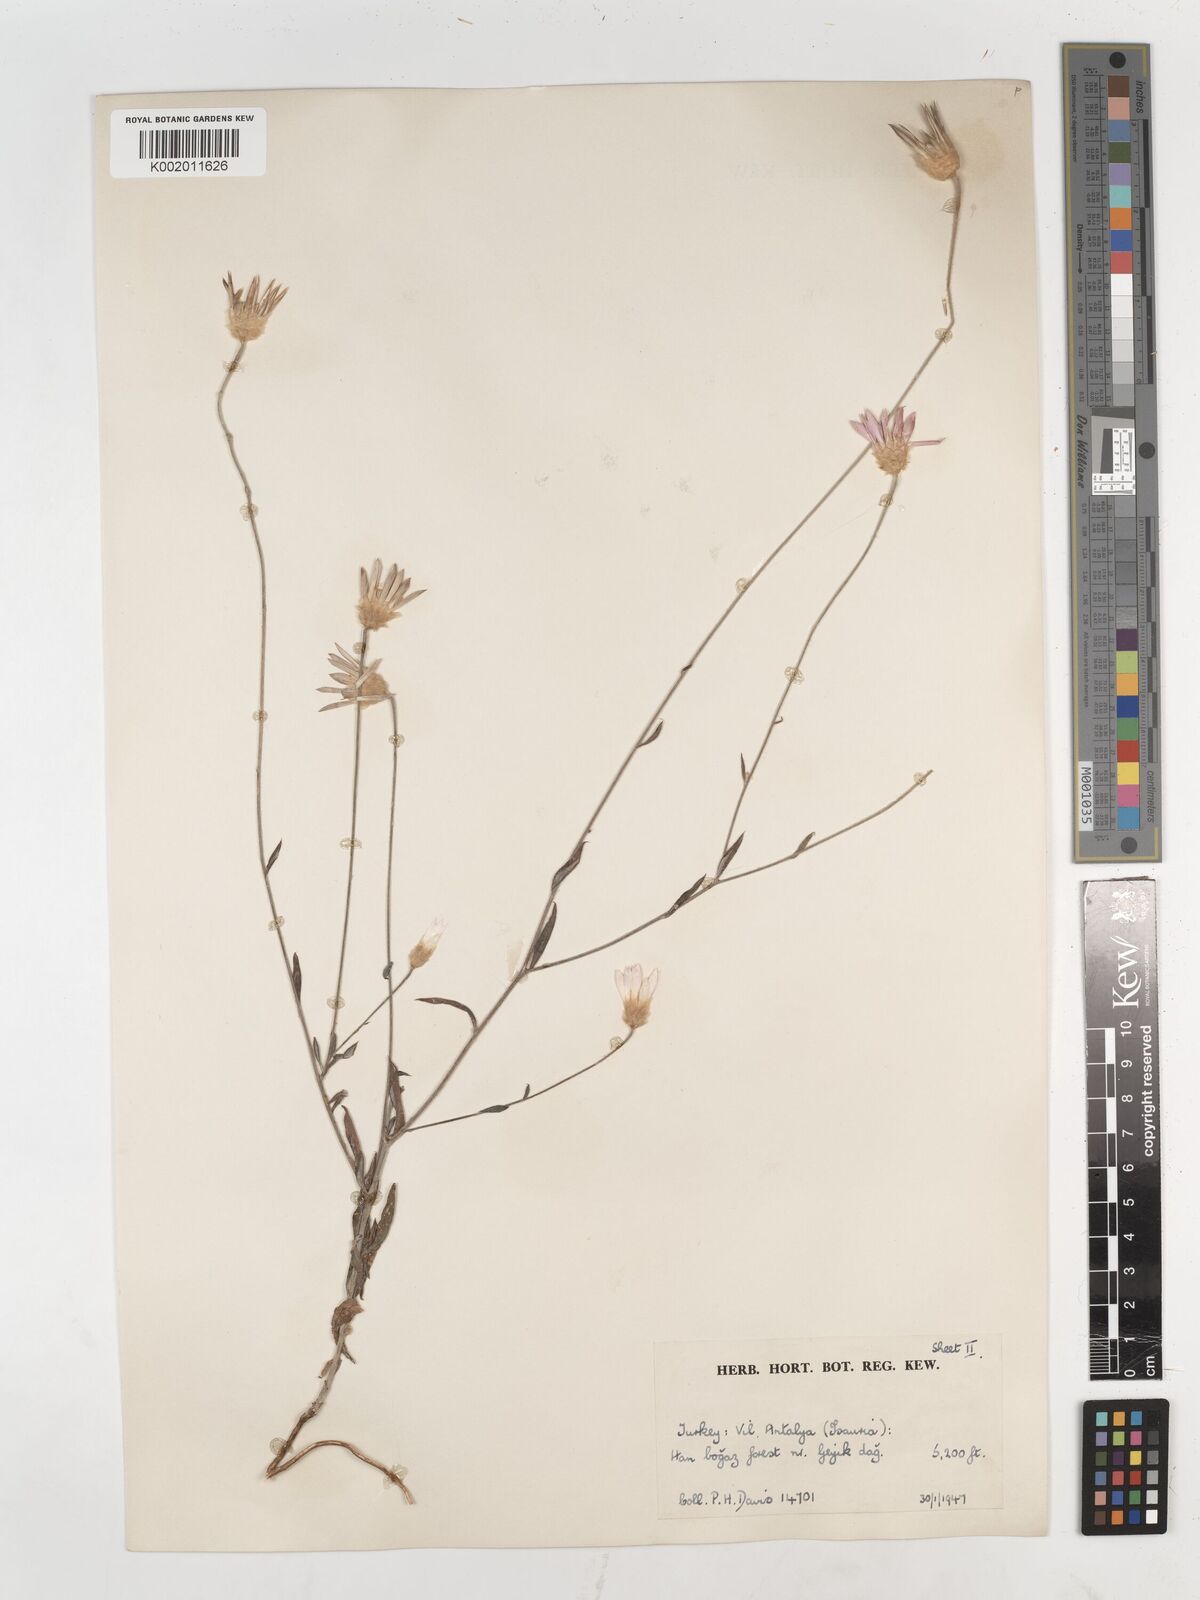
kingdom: Plantae
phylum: Tracheophyta
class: Magnoliopsida
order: Asterales
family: Asteraceae
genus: Xeranthemum
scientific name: Xeranthemum annuum
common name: Immortelle
